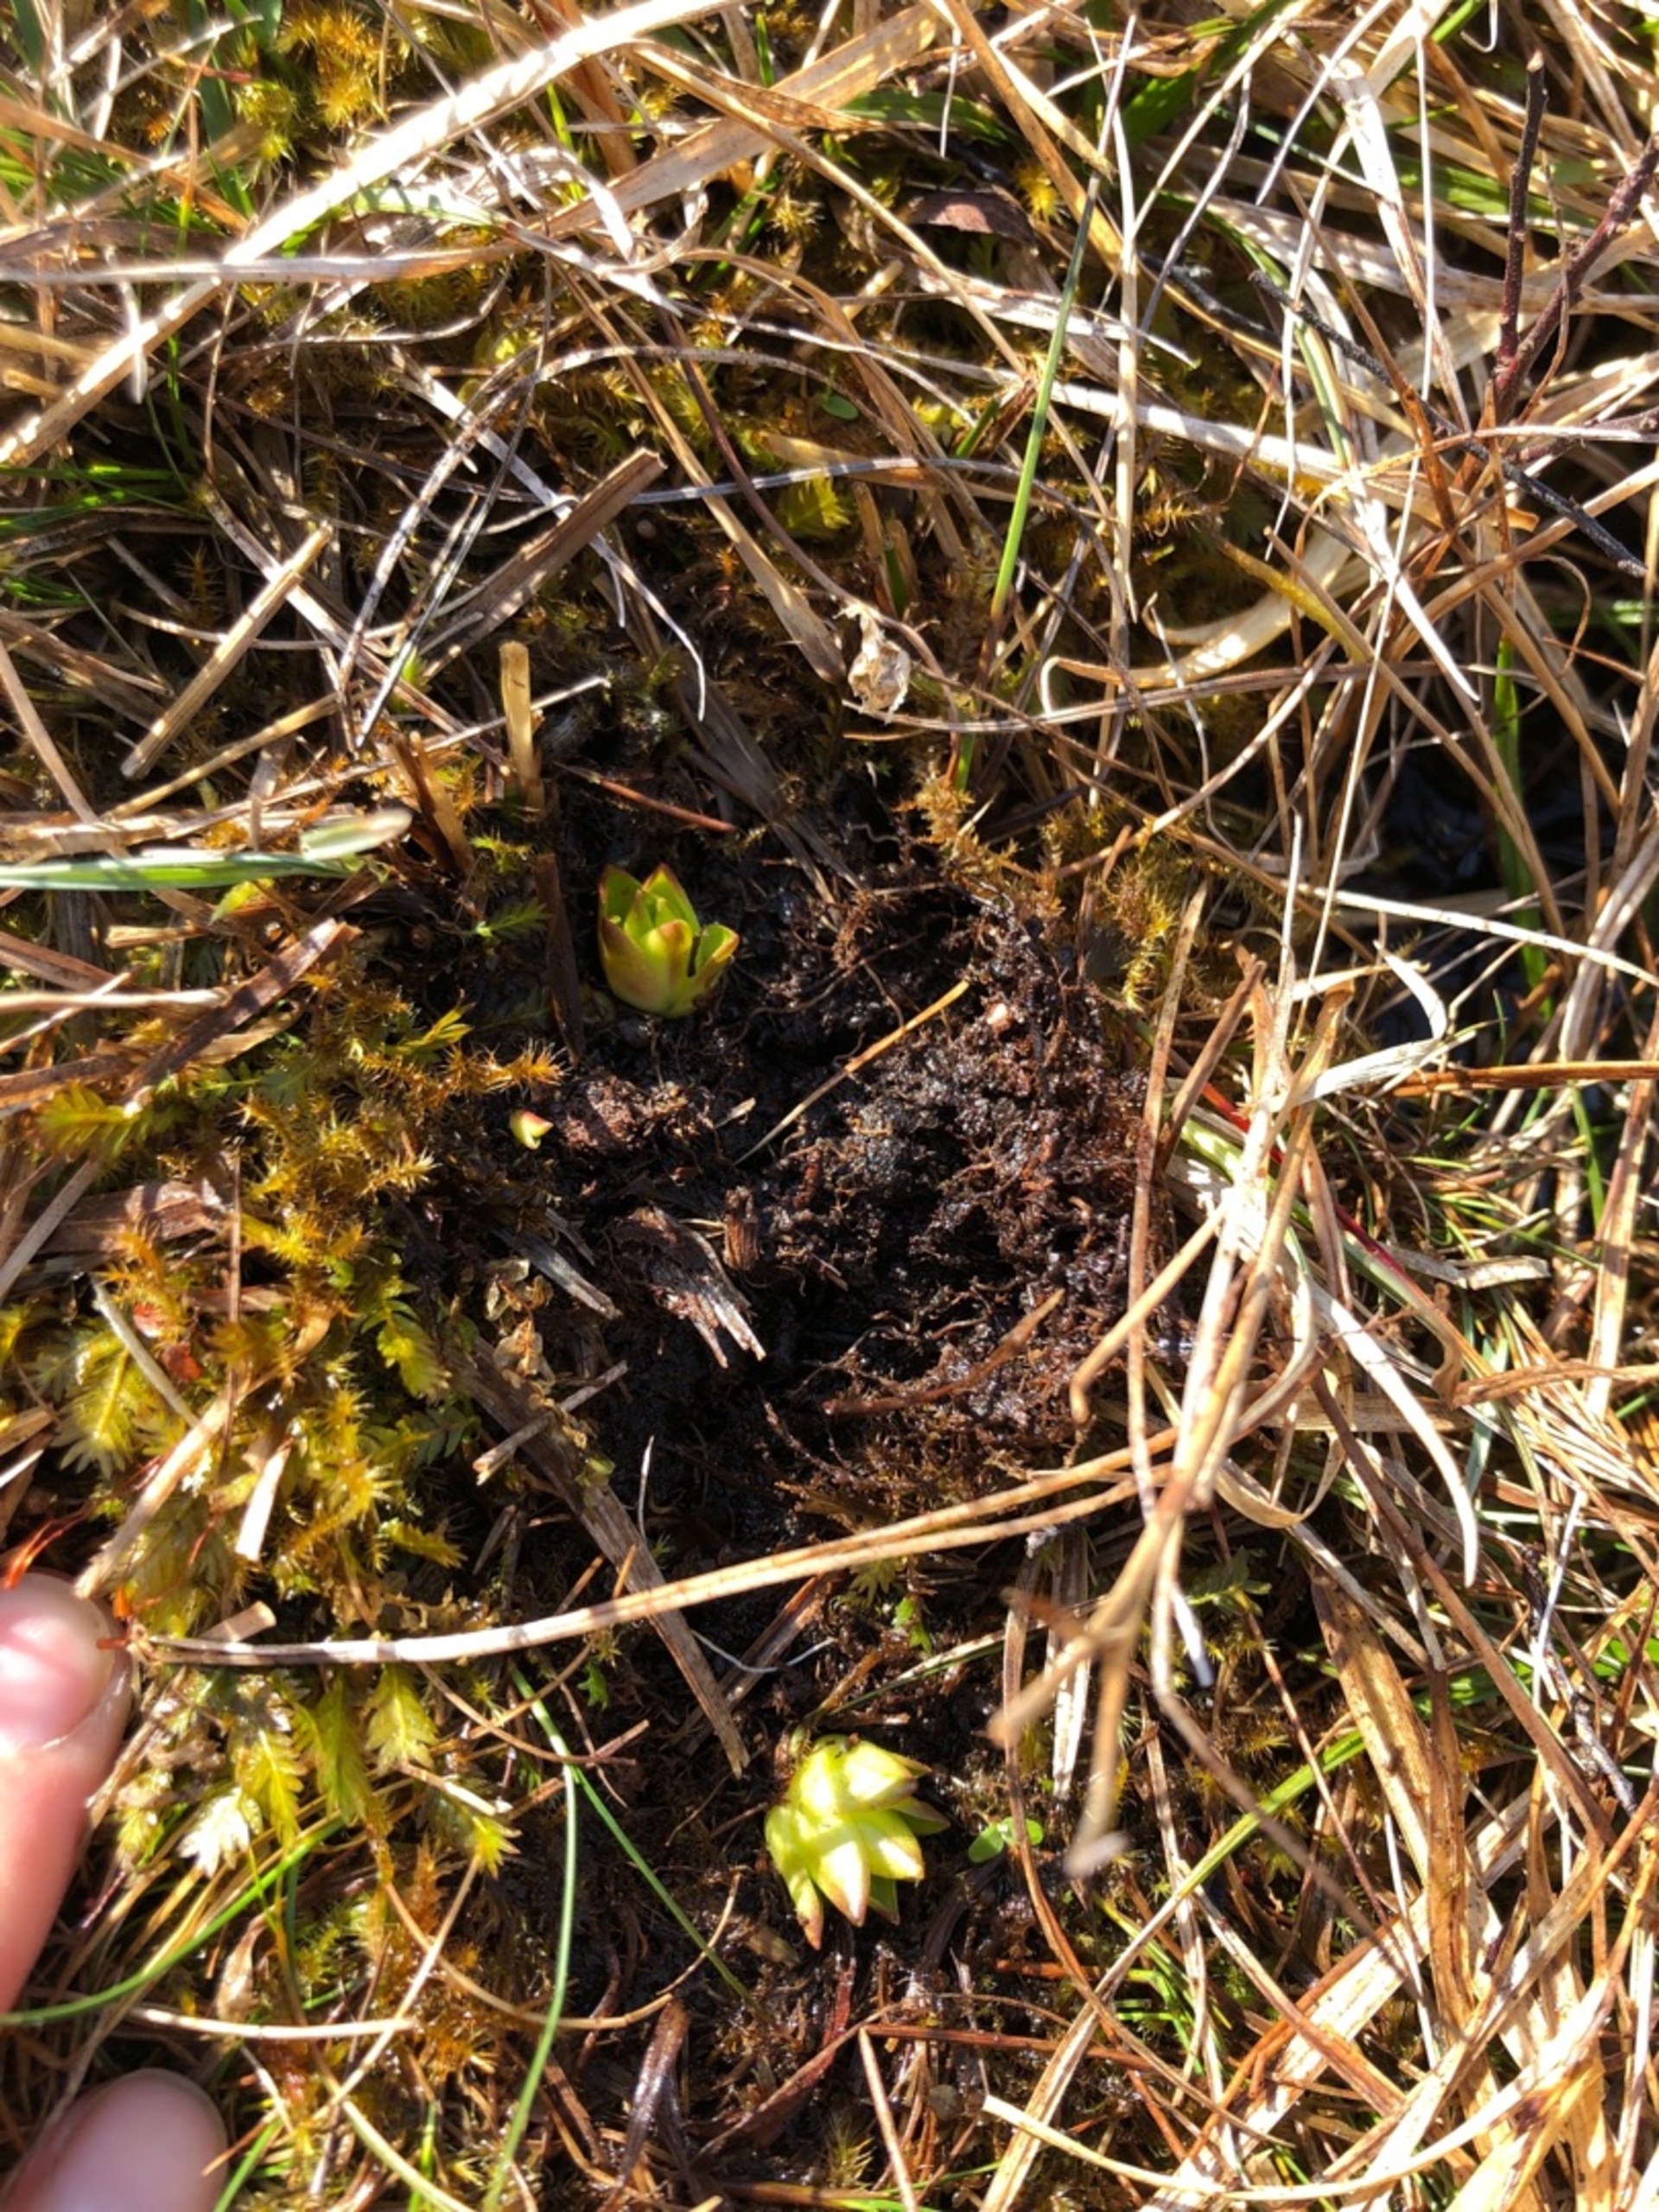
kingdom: Plantae
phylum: Tracheophyta
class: Magnoliopsida
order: Lamiales
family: Lentibulariaceae
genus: Pinguicula
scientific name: Pinguicula vulgaris
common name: Vibefedt
